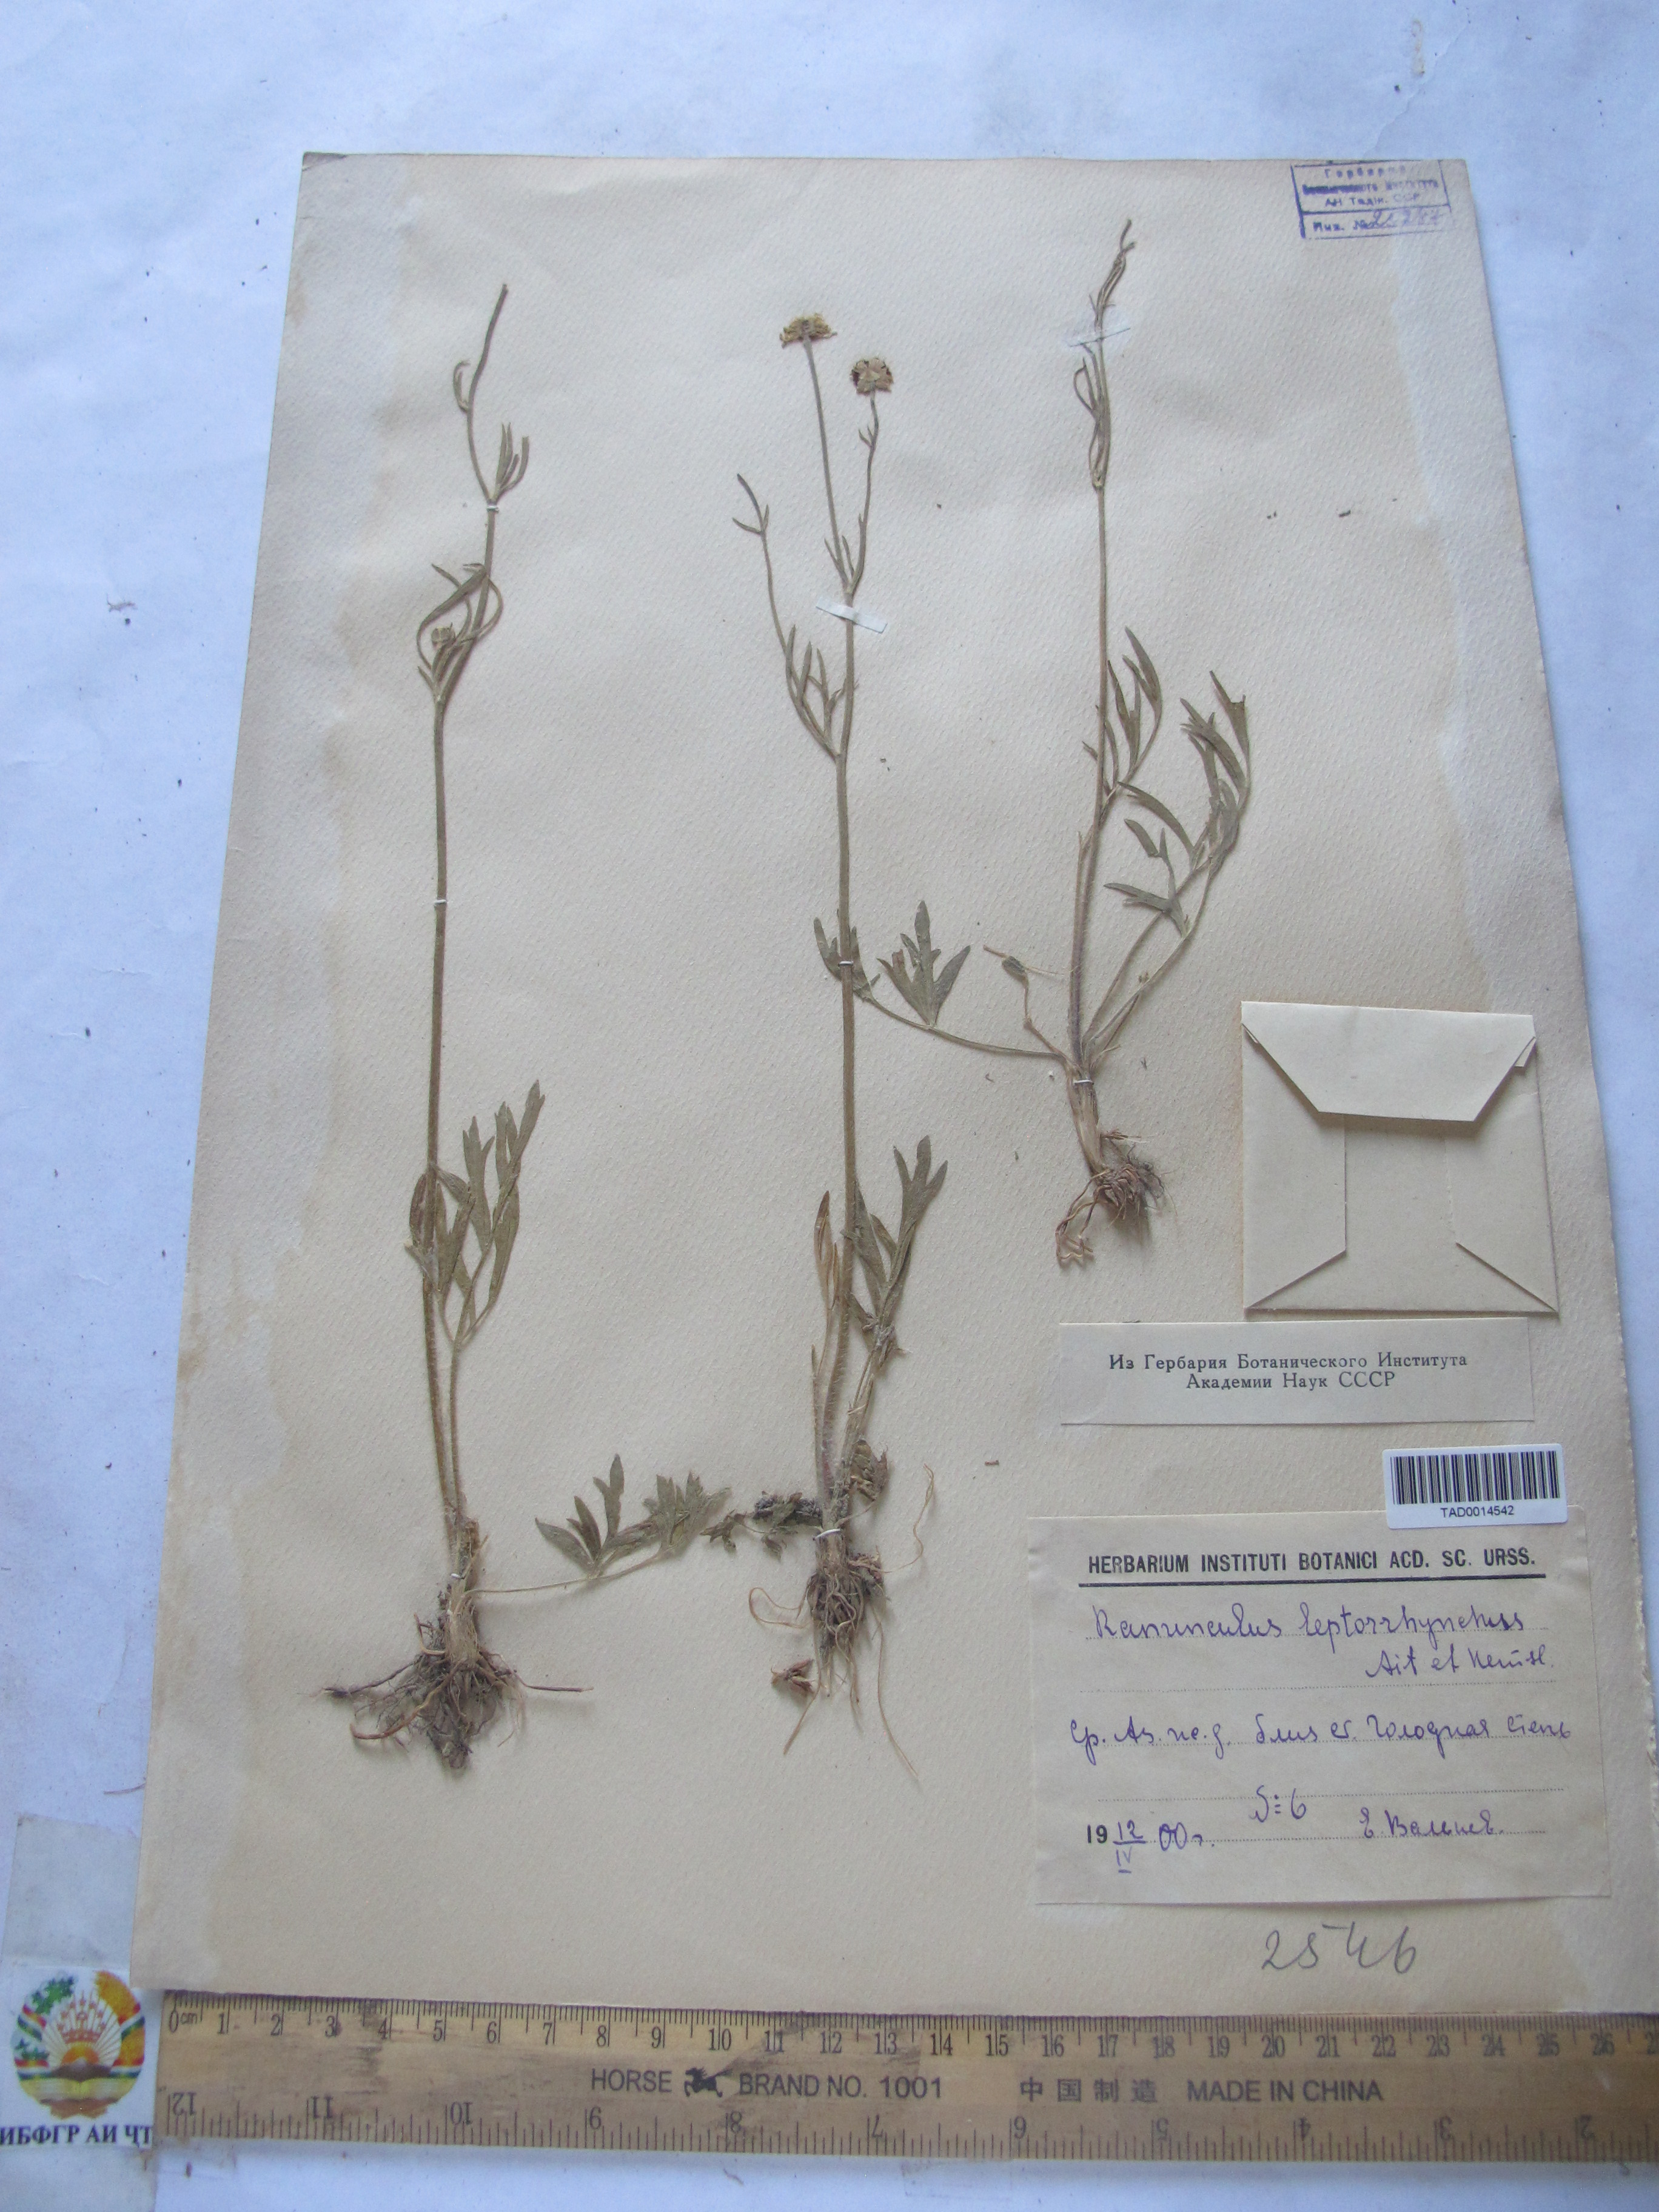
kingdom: Plantae
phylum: Tracheophyta
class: Magnoliopsida
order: Ranunculales
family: Ranunculaceae
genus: Ranunculus
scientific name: Ranunculus leptorrhynchus
